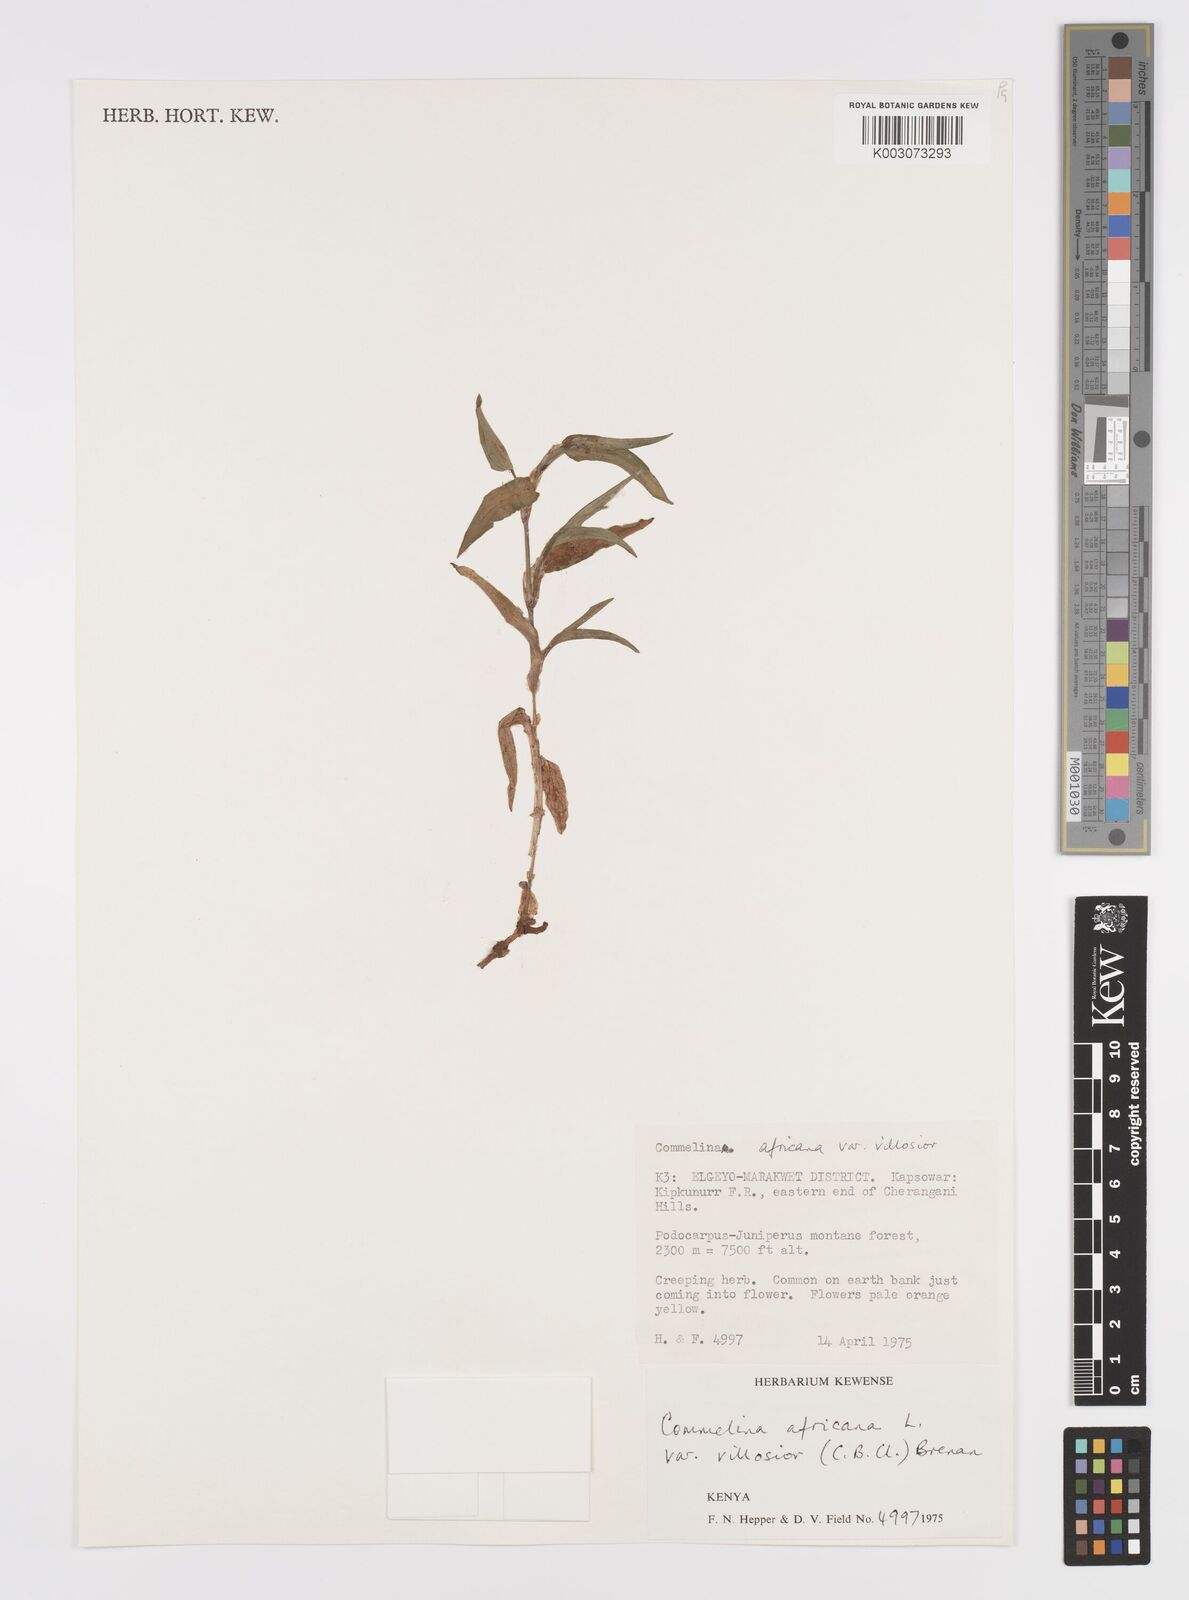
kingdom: Plantae
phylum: Tracheophyta
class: Liliopsida
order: Commelinales
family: Commelinaceae
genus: Commelina
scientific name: Commelina africana
